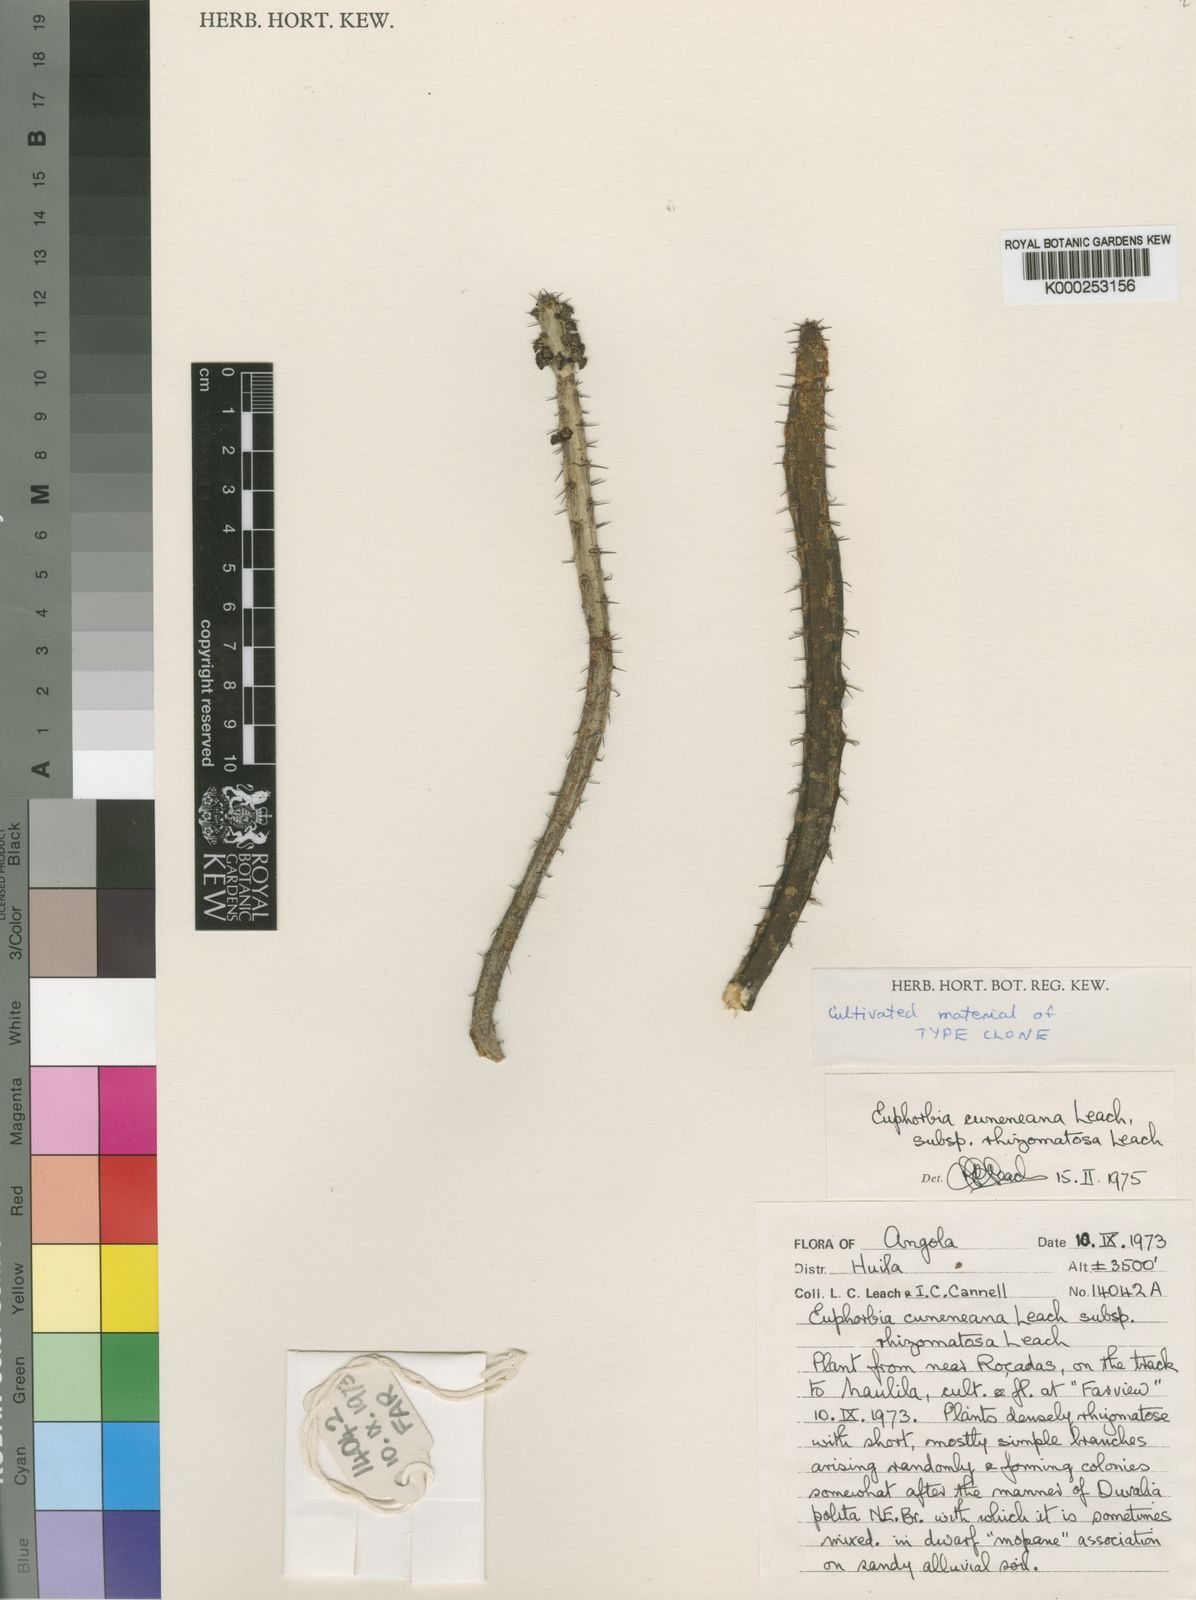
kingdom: Plantae
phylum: Tracheophyta
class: Magnoliopsida
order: Malpighiales
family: Euphorbiaceae
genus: Euphorbia
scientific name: Euphorbia cuneneana
